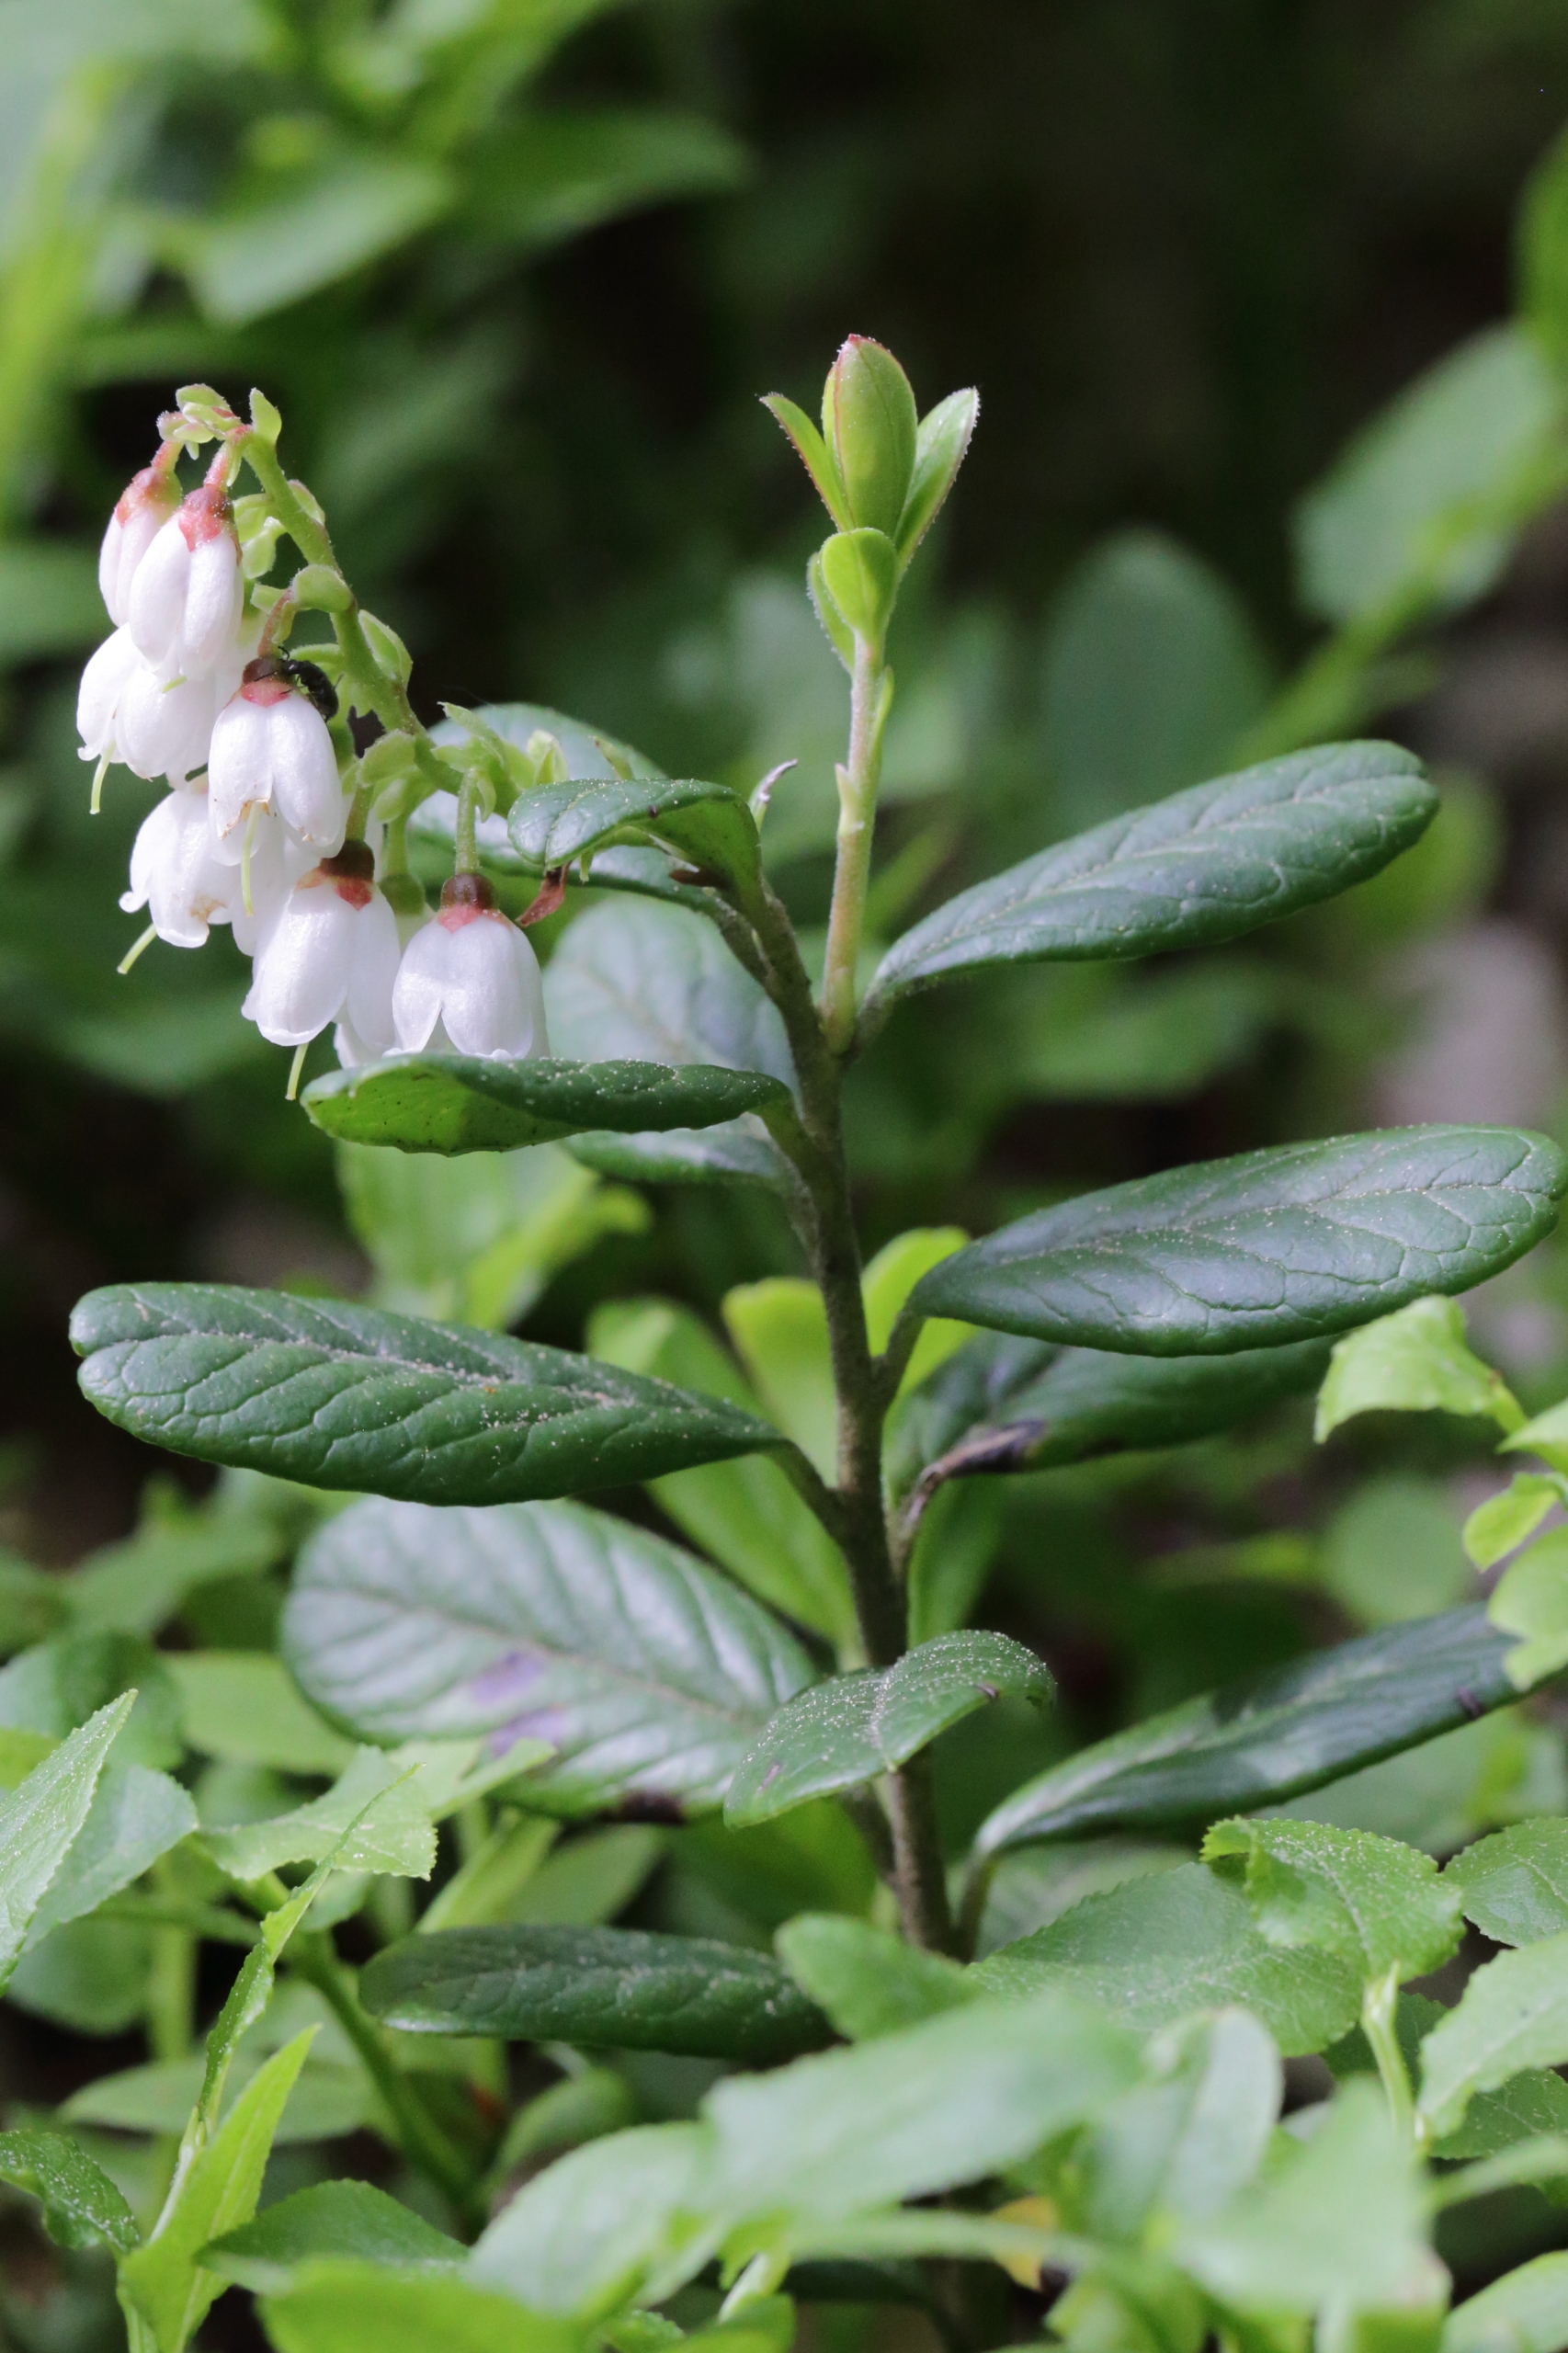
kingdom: Plantae
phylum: Tracheophyta
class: Magnoliopsida
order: Ericales
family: Ericaceae
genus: Vaccinium
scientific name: Vaccinium vitis-idaea
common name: Tyttebær
